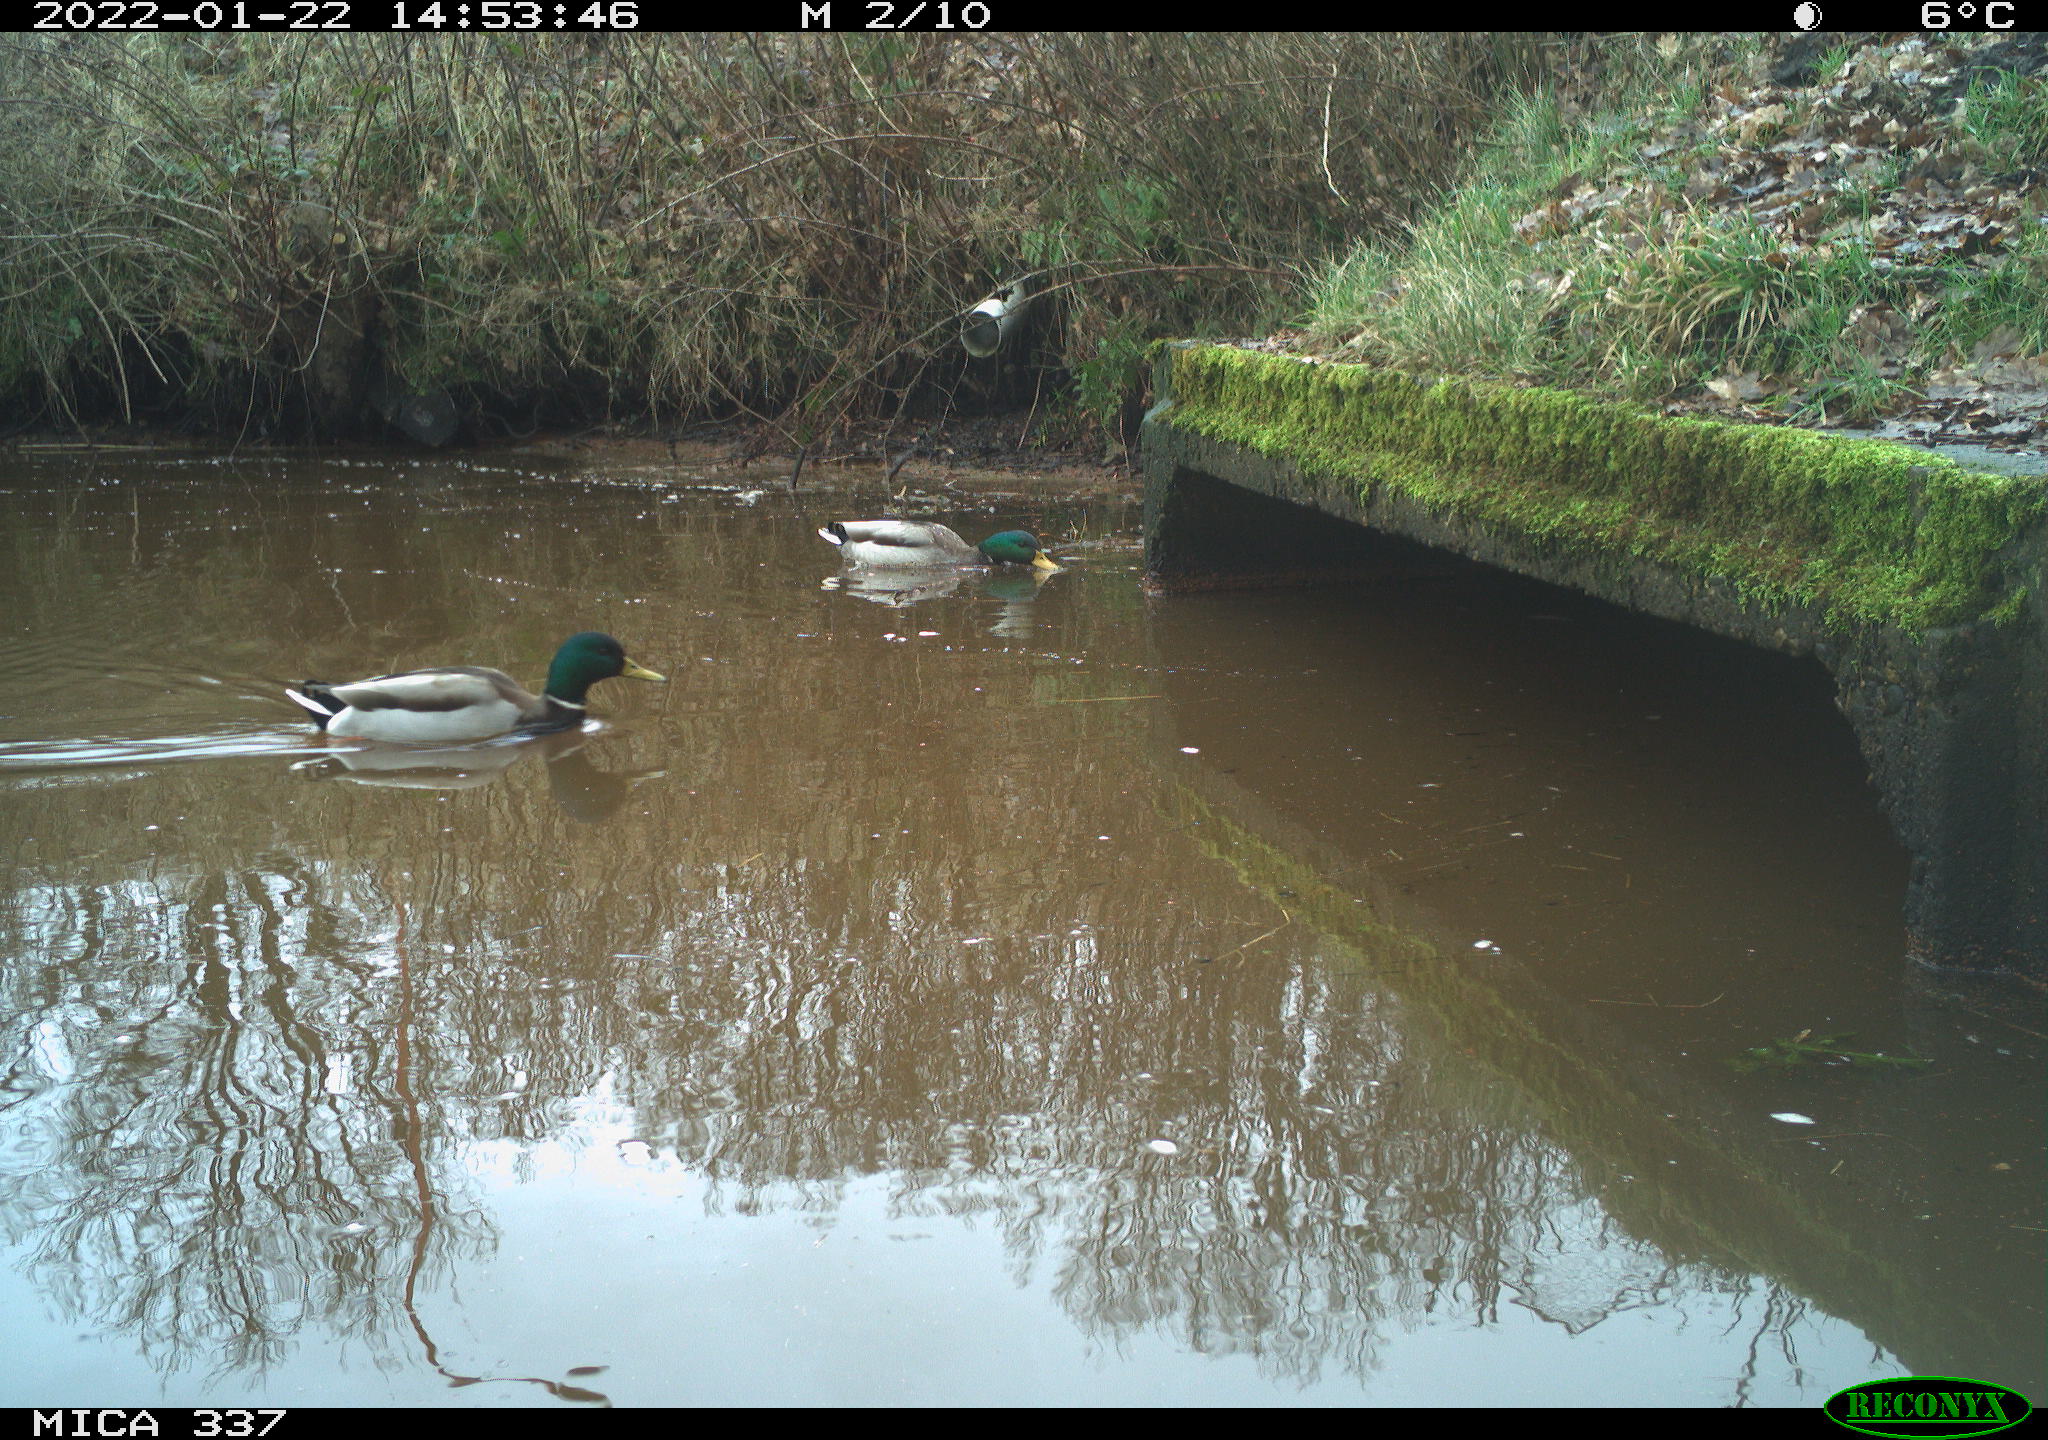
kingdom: Animalia
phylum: Chordata
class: Aves
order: Anseriformes
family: Anatidae
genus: Anas
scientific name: Anas platyrhynchos
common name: Mallard
